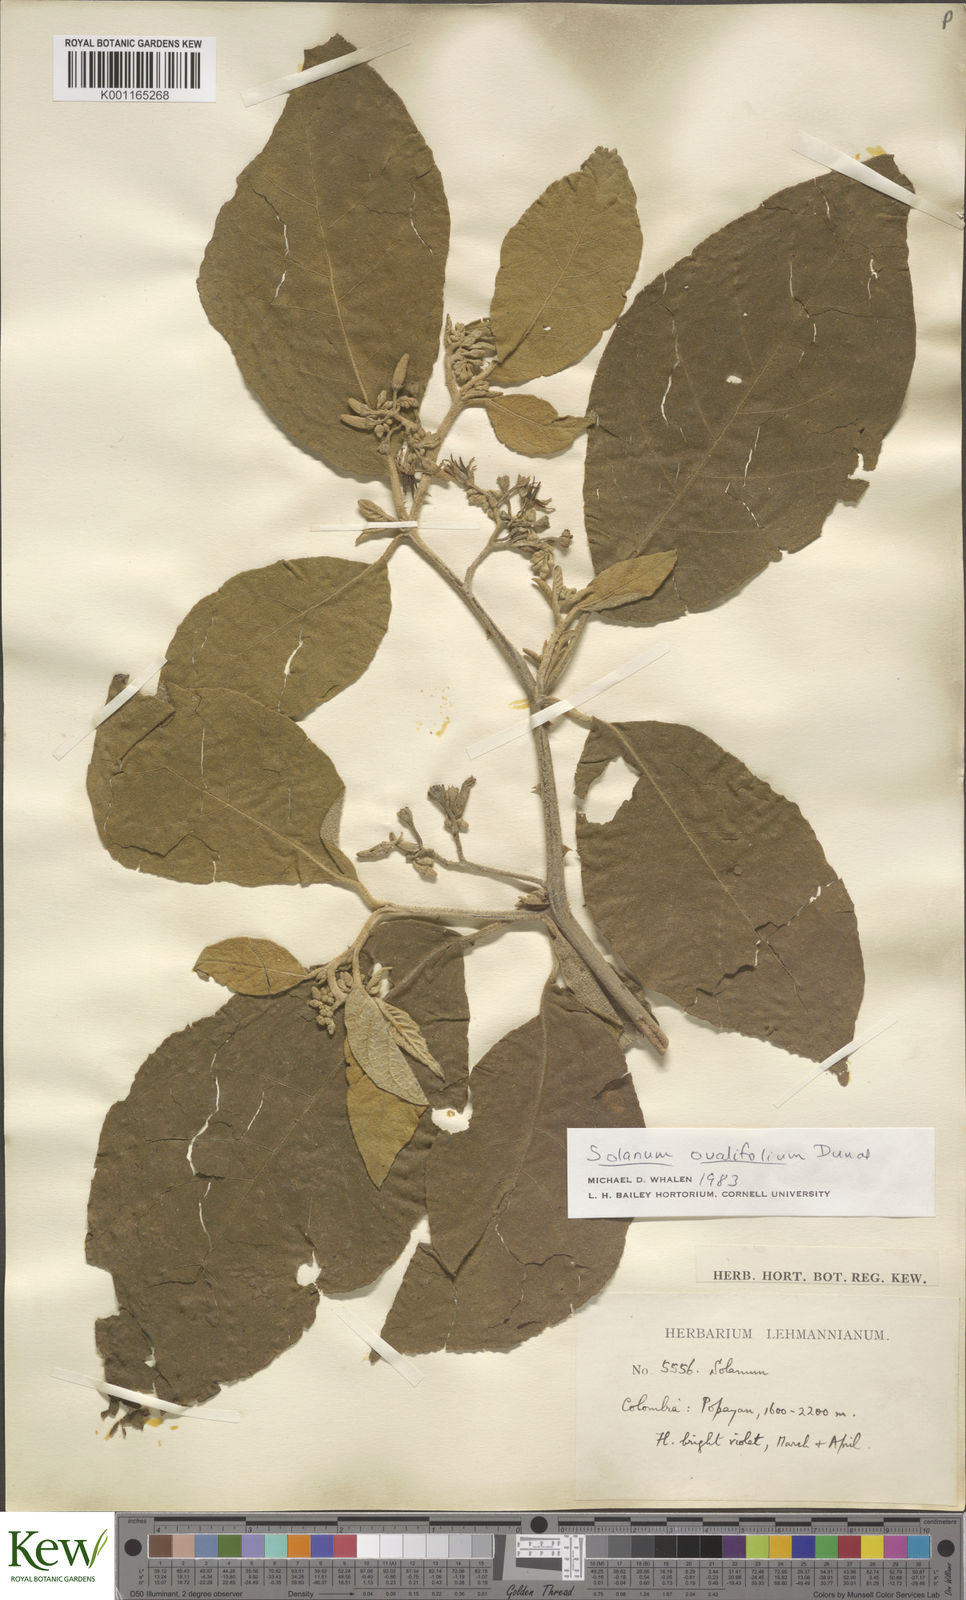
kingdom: Plantae
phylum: Tracheophyta
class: Magnoliopsida
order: Solanales
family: Solanaceae
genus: Solanum
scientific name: Solanum ovalifolium
